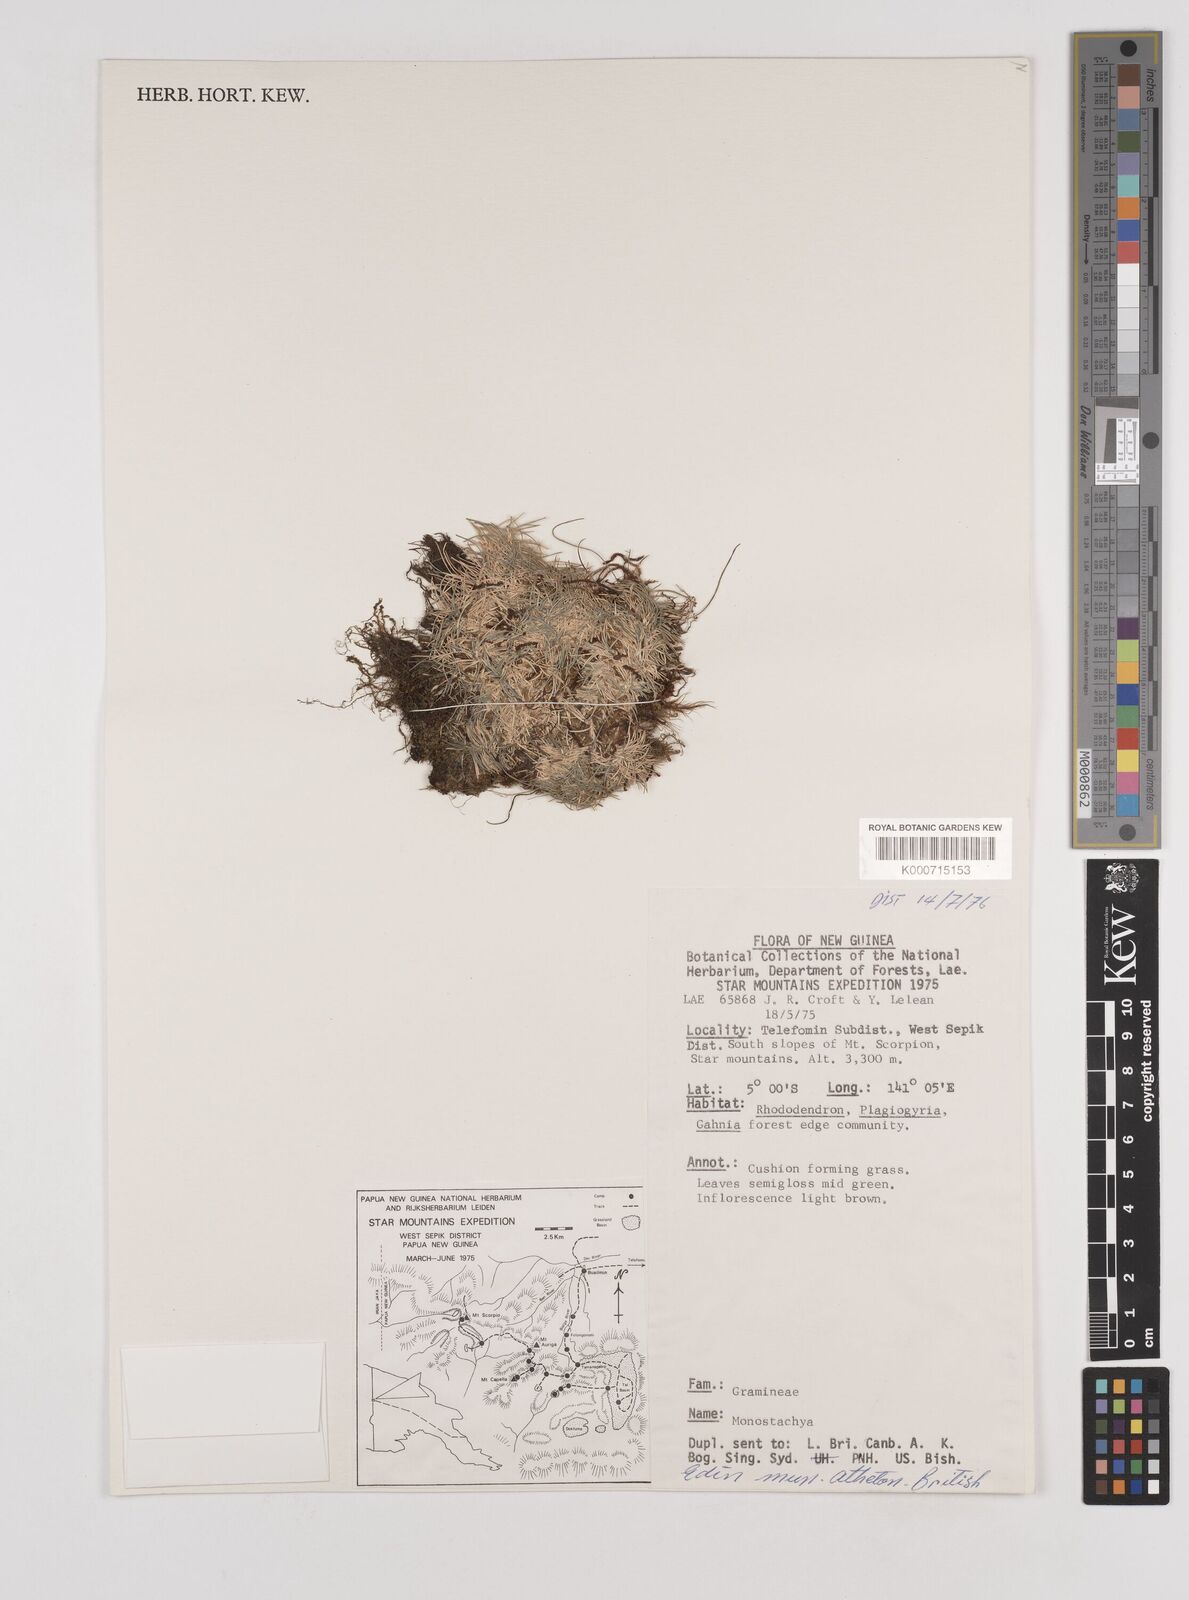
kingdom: Plantae
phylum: Tracheophyta
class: Liliopsida
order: Poales
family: Poaceae
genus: Rytidosperma
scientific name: Rytidosperma oreoboloides
